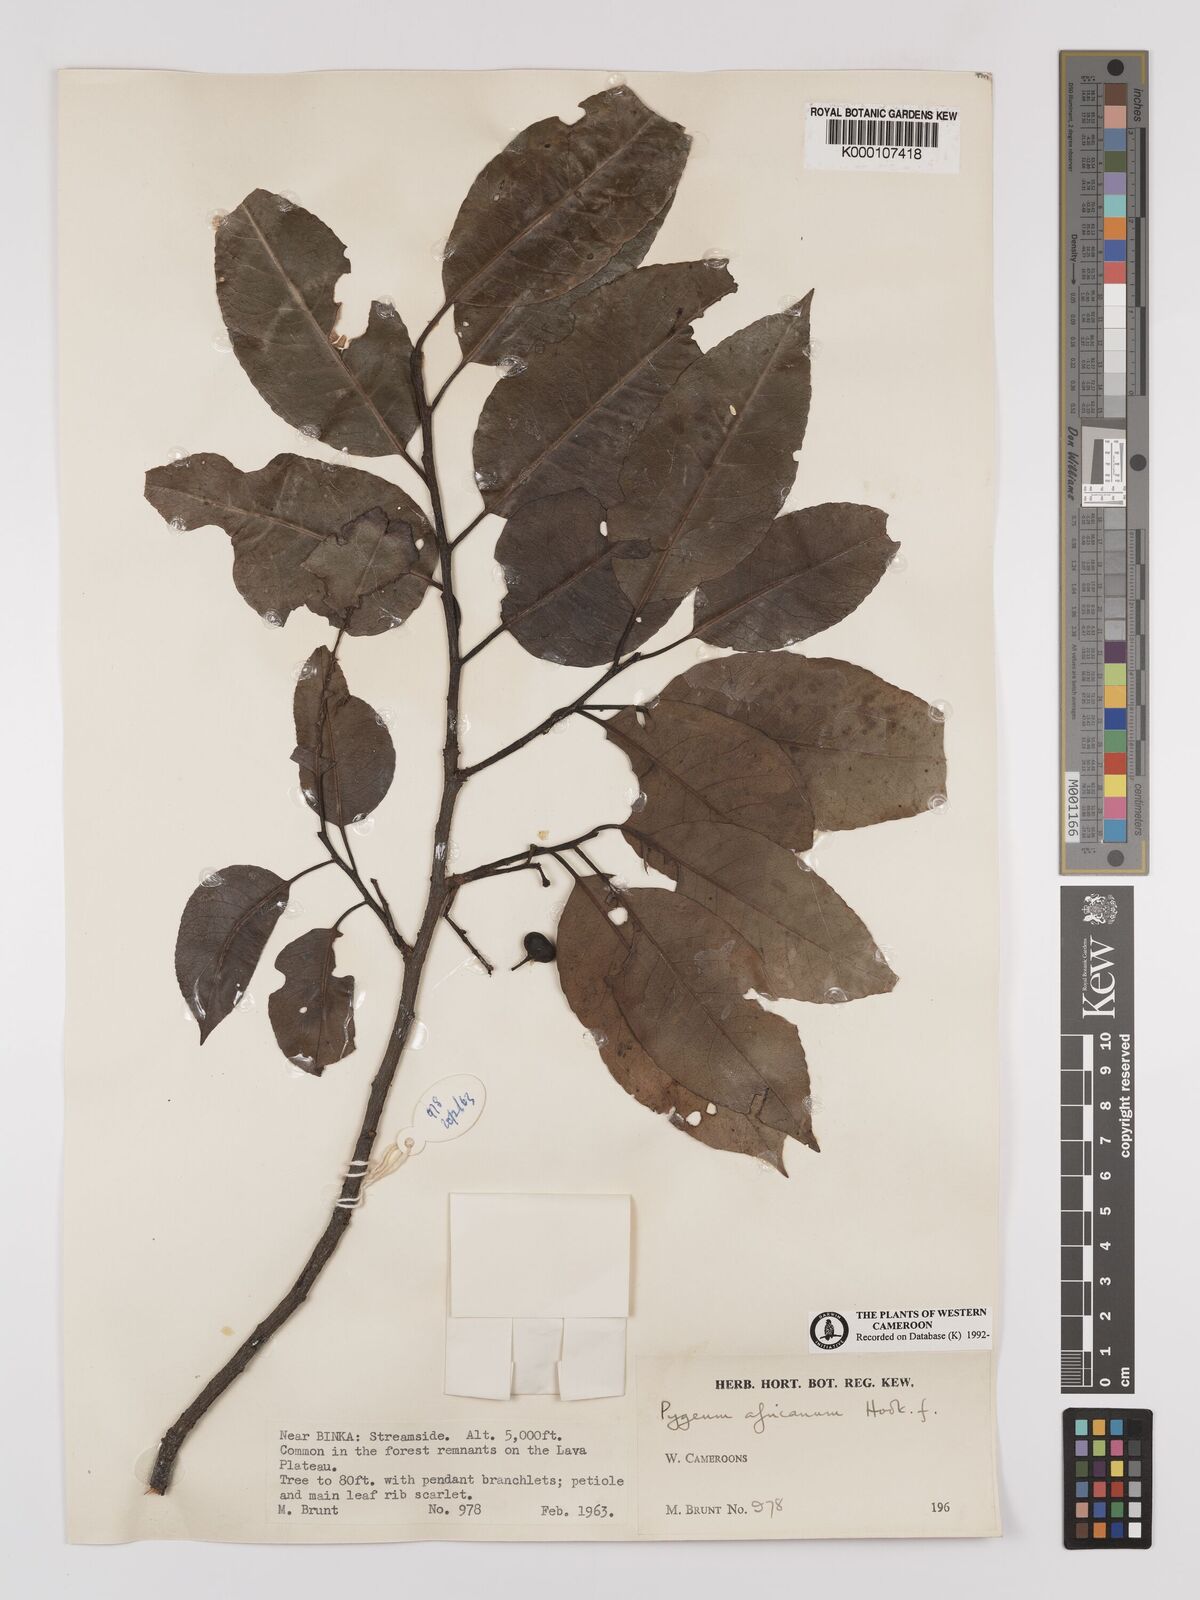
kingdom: Plantae
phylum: Tracheophyta
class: Magnoliopsida
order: Rosales
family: Rosaceae
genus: Prunus
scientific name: Prunus africana
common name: African cherry
